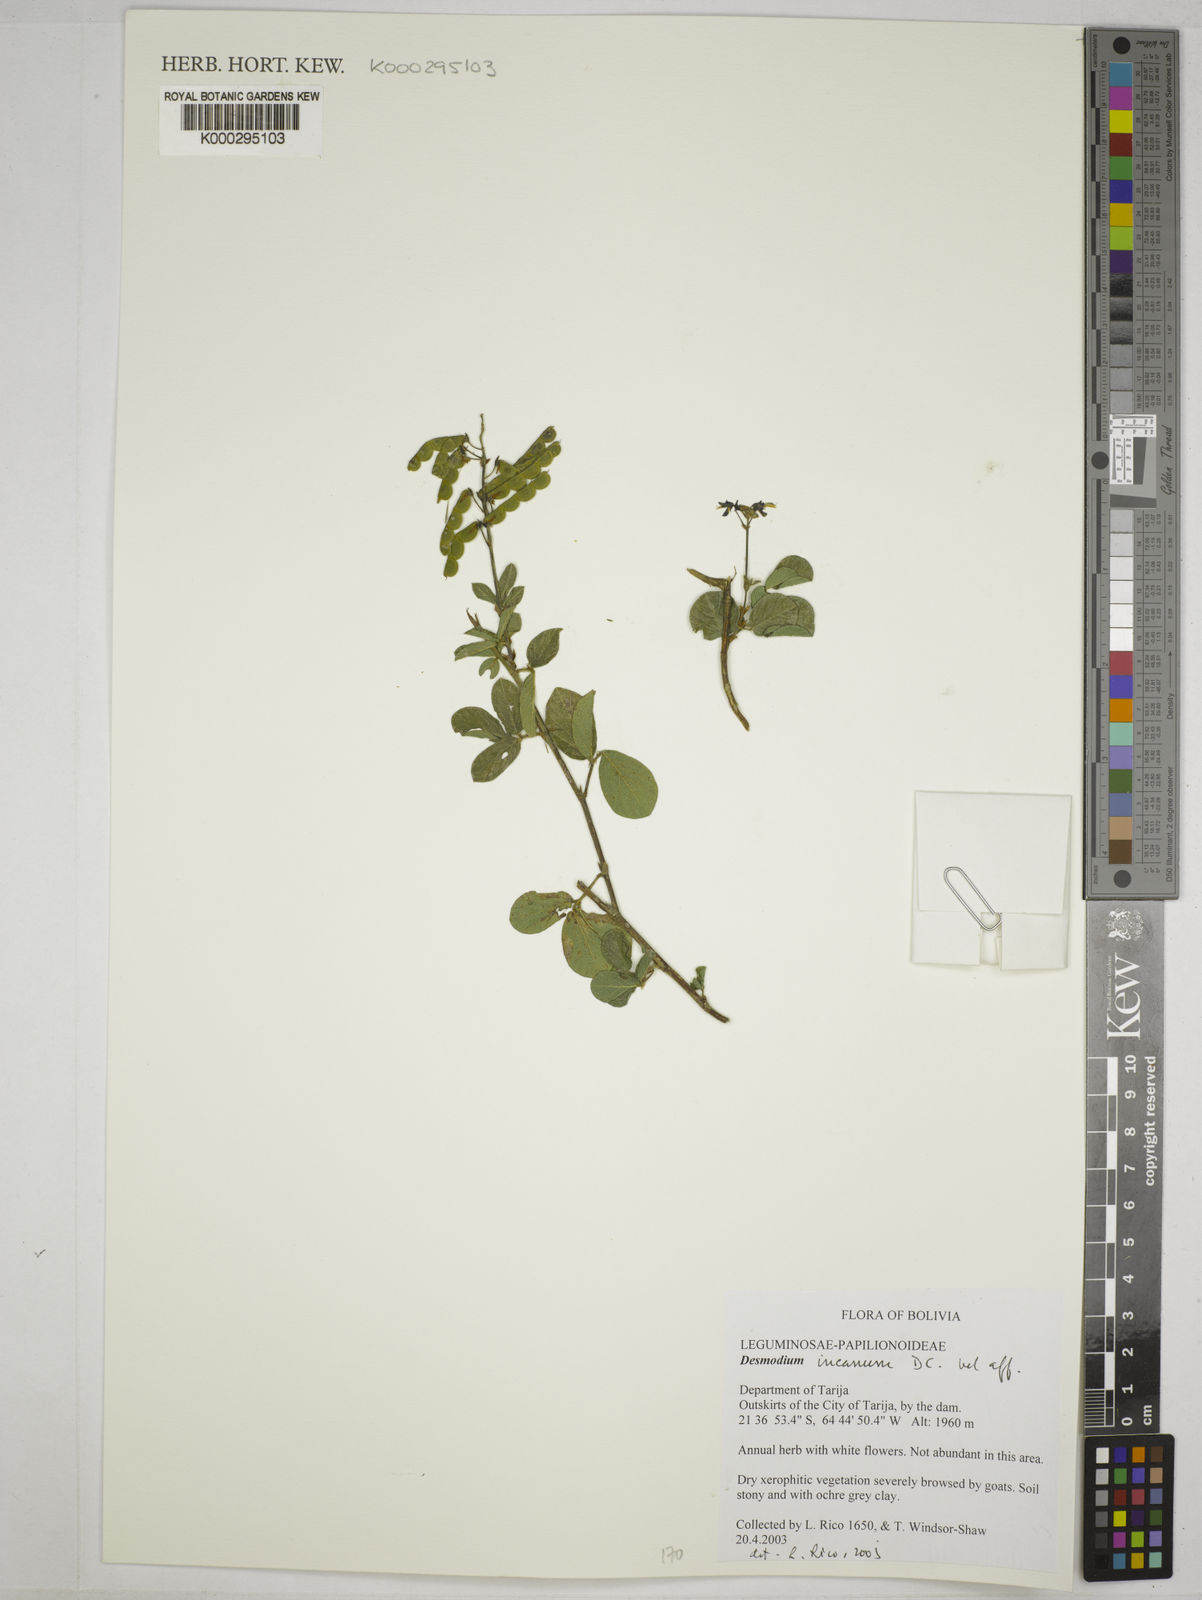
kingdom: Plantae
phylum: Tracheophyta
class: Magnoliopsida
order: Fabales
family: Fabaceae
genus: Desmodium
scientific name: Desmodium incanum
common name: Tickclover
